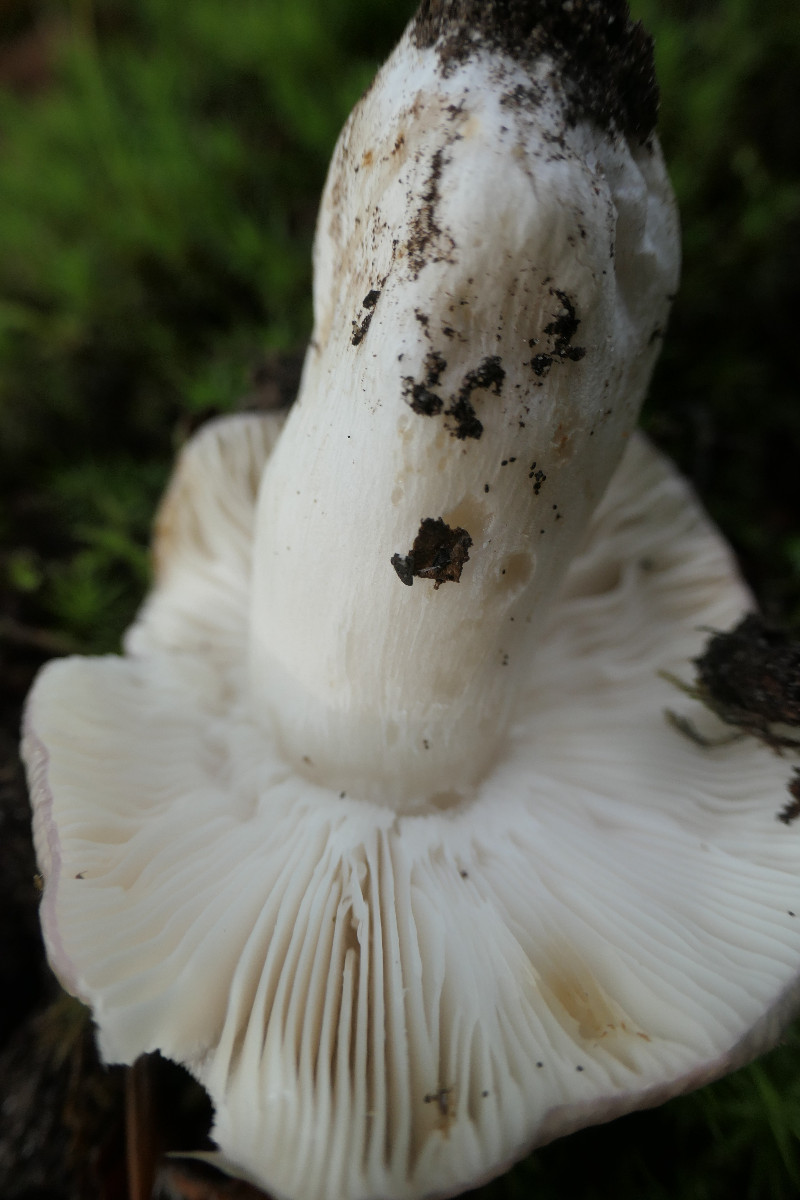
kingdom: Fungi
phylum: Basidiomycota
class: Agaricomycetes
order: Russulales
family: Russulaceae
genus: Russula
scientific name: Russula heterophylla
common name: gaffelbladet skørhat
